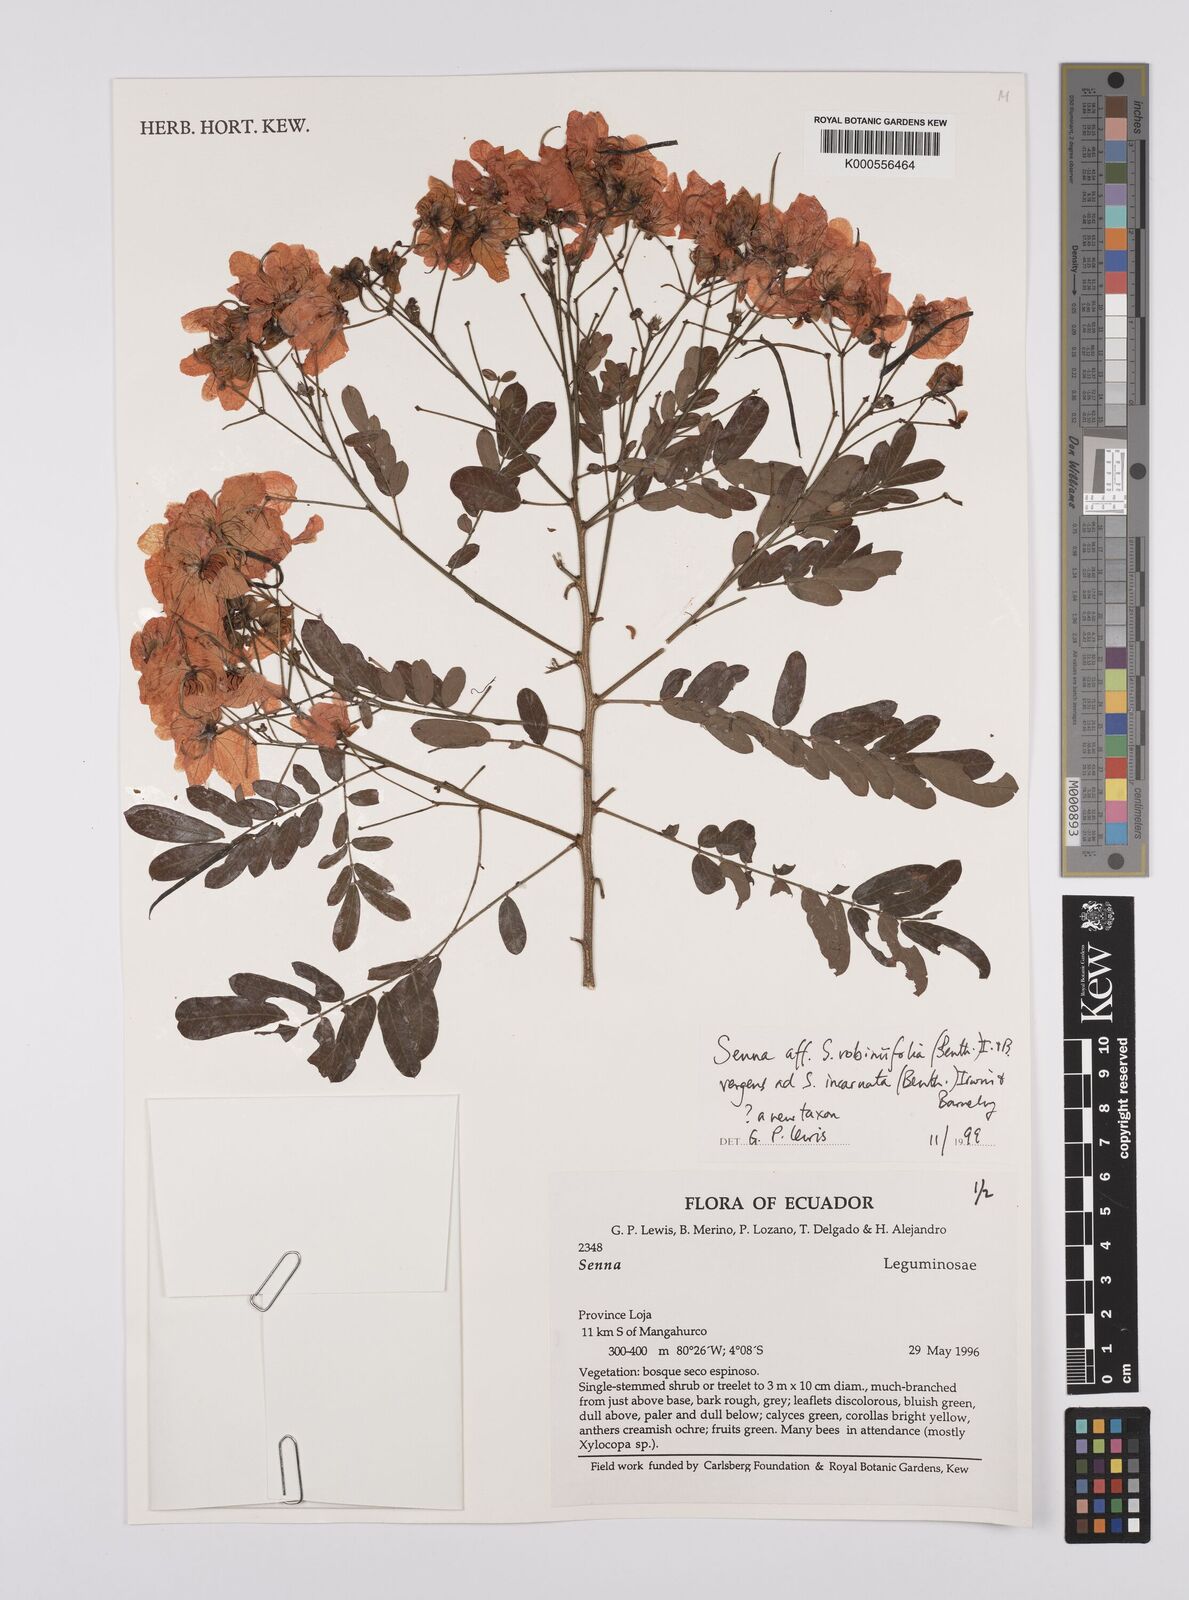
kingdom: Plantae
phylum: Tracheophyta
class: Magnoliopsida
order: Fabales
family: Fabaceae
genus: Senna
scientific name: Senna robiniifolia
